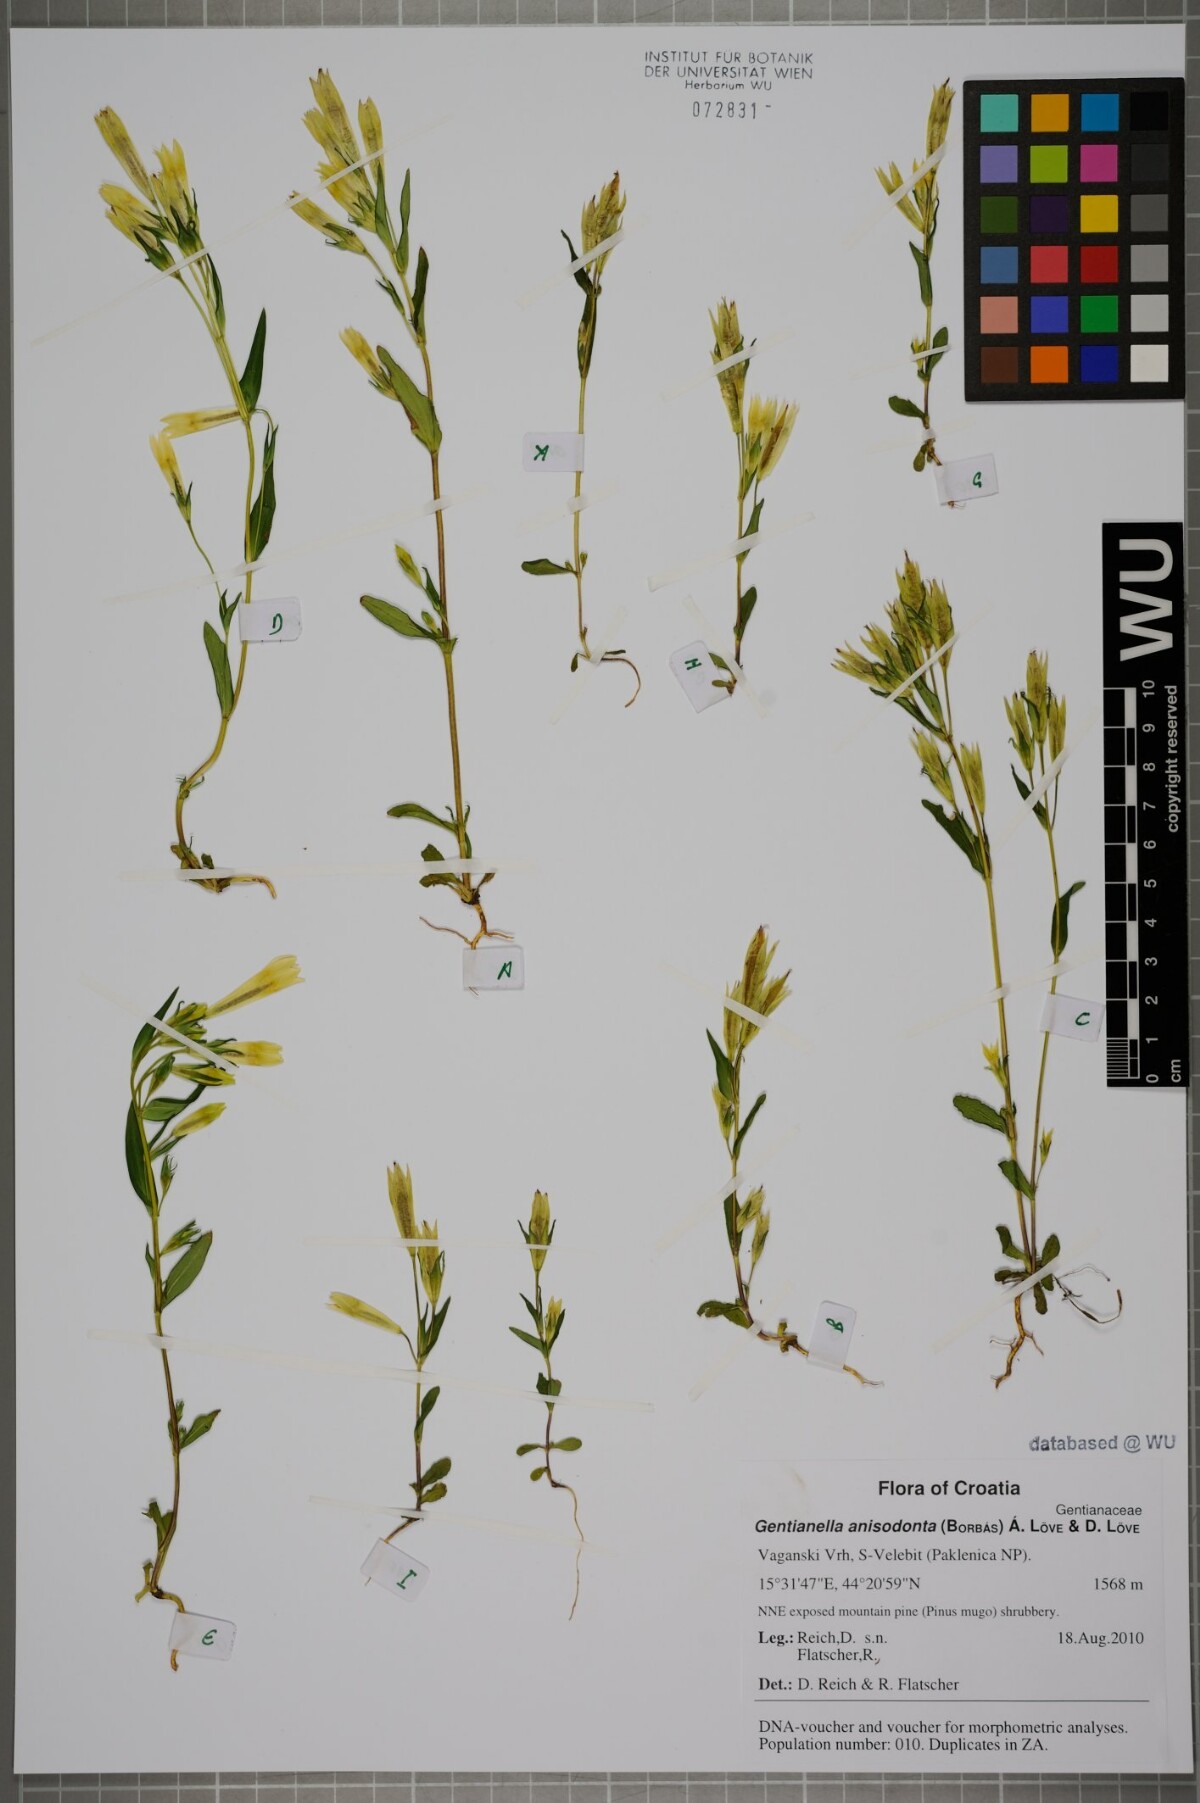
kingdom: Plantae
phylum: Tracheophyta
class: Magnoliopsida
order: Gentianales
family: Gentianaceae
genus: Gentianella
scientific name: Gentianella anisodonta
